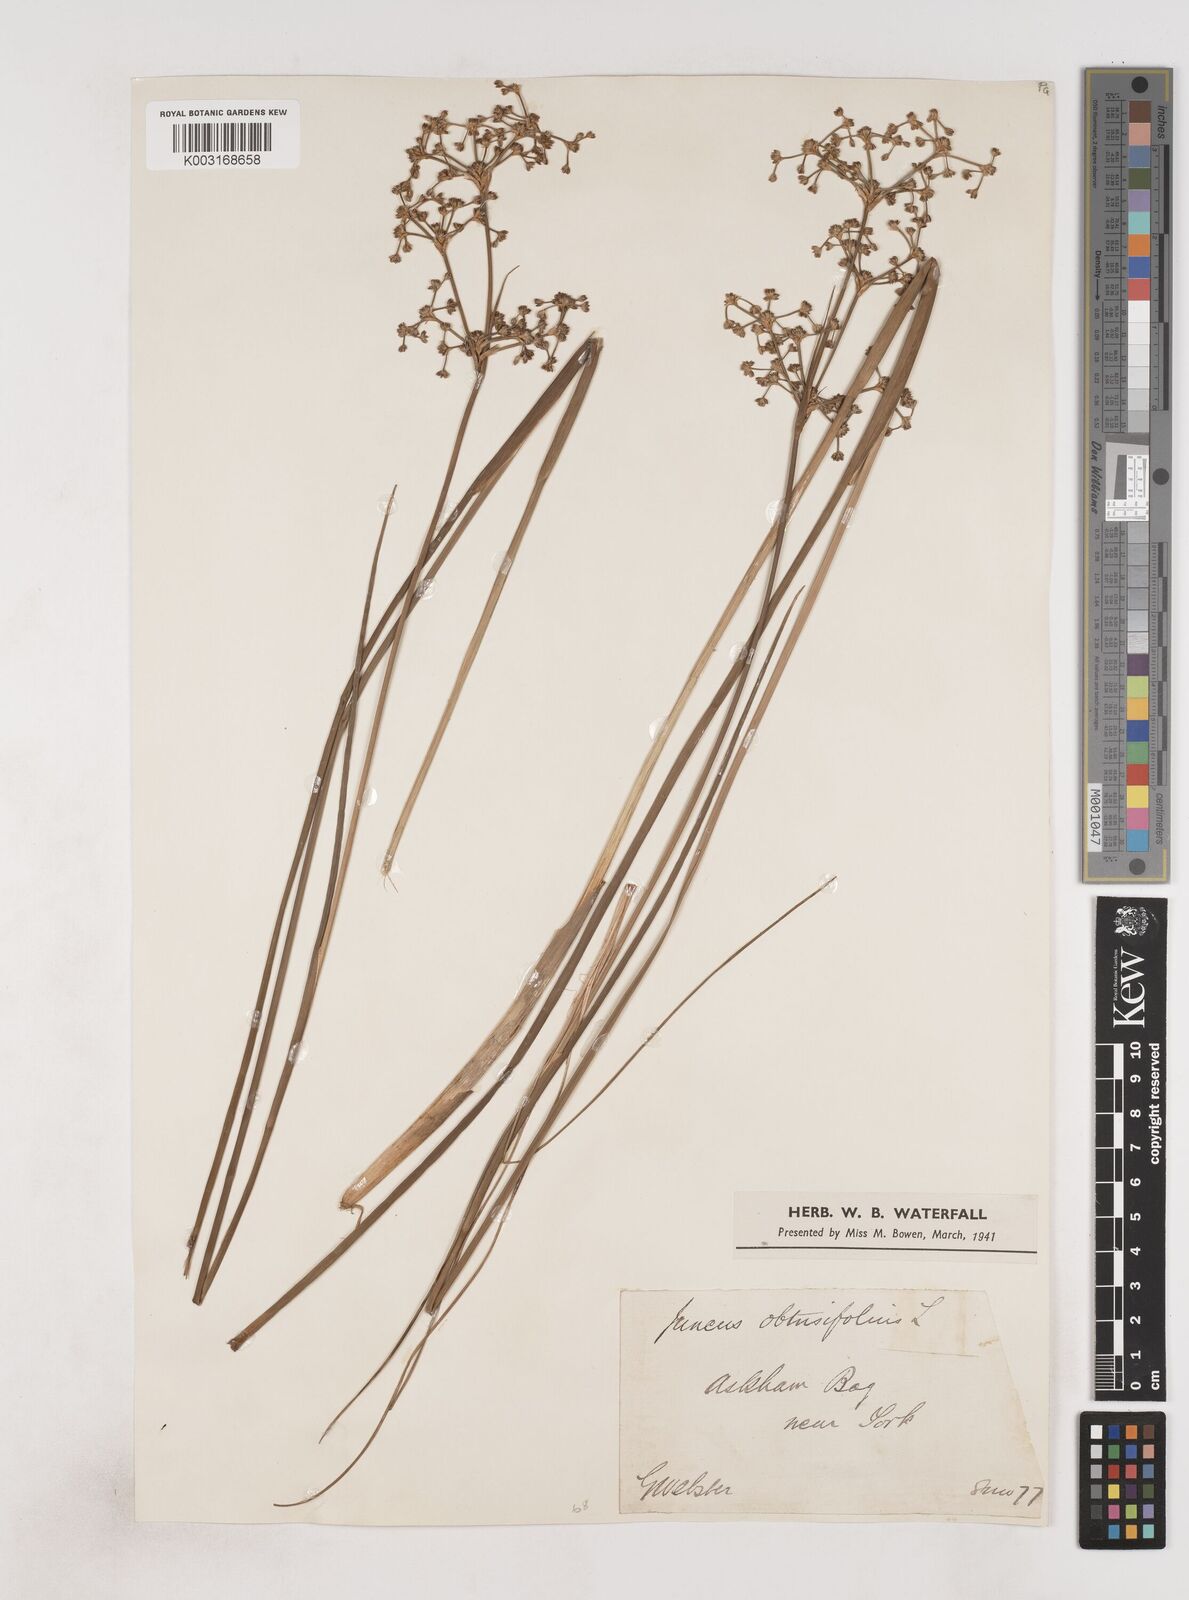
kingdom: Plantae
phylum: Tracheophyta
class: Liliopsida
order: Poales
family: Juncaceae
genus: Juncus
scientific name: Juncus subnodulosus
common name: Blunt-flowered rush
